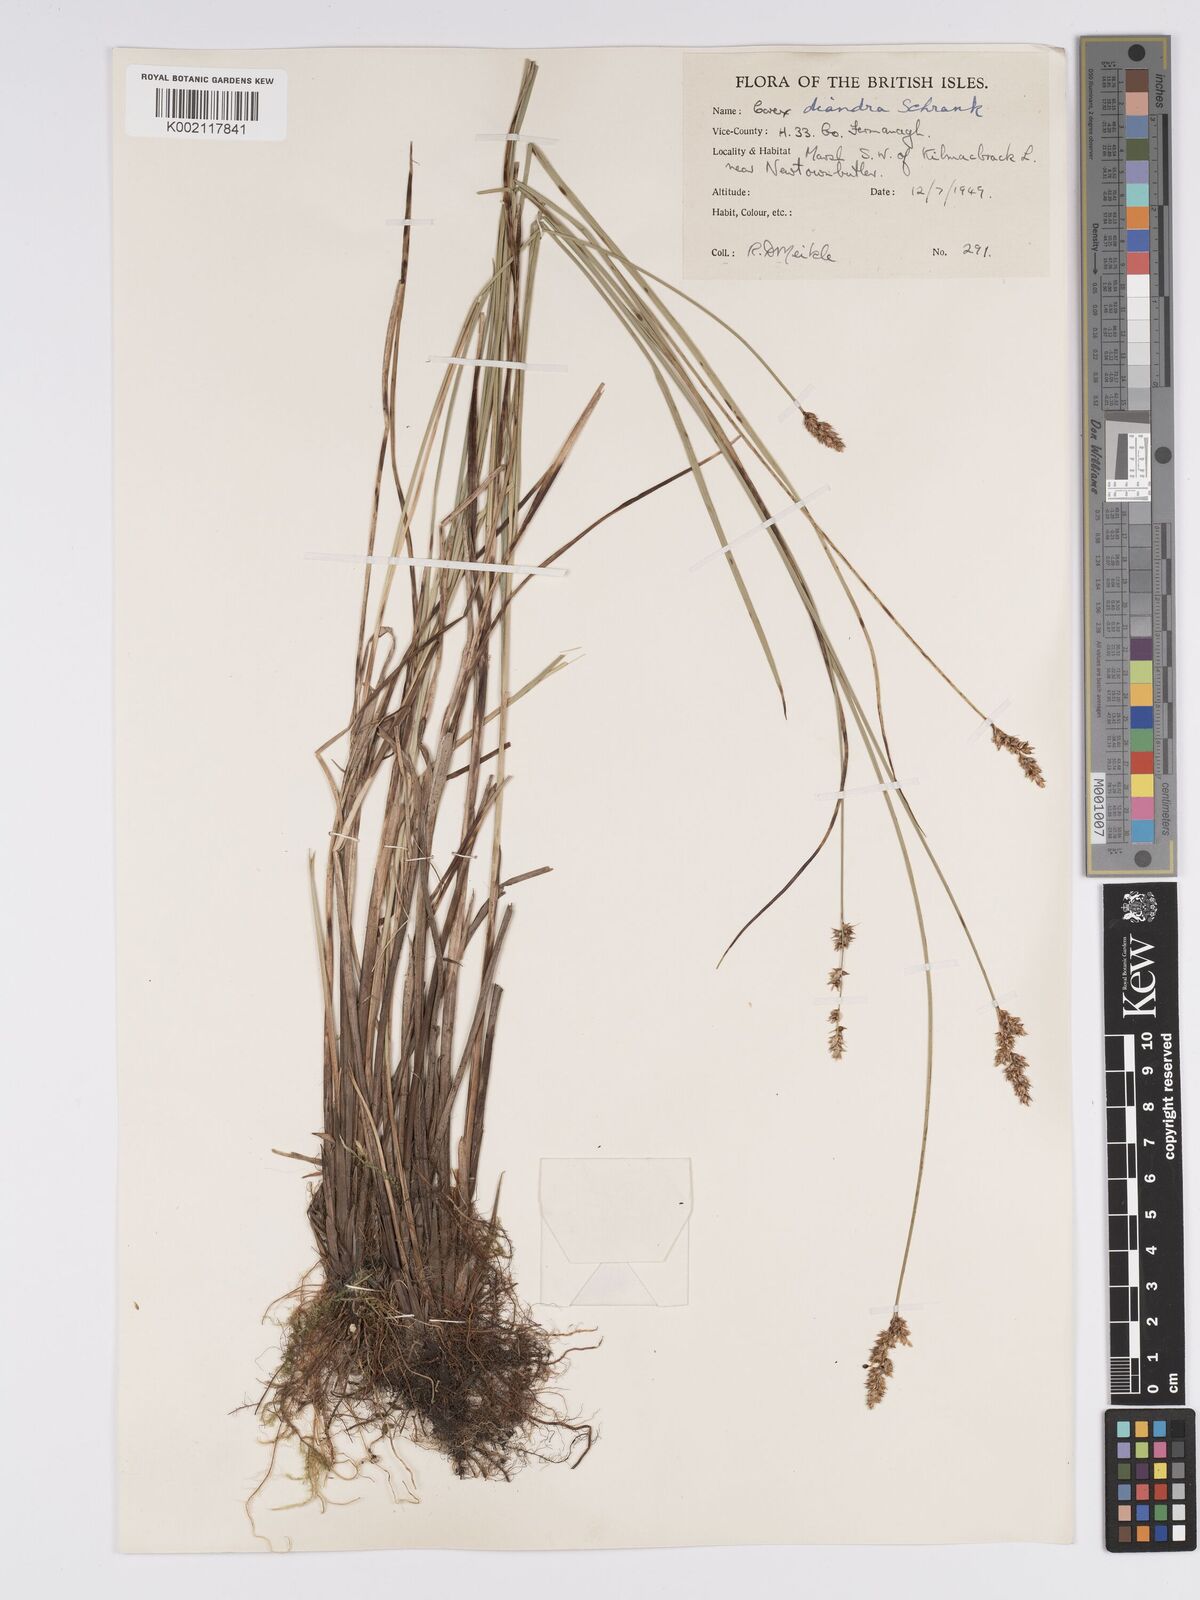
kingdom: Plantae
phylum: Tracheophyta
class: Liliopsida
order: Poales
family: Cyperaceae
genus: Carex
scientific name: Carex diandra
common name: Lesser tussock-sedge
